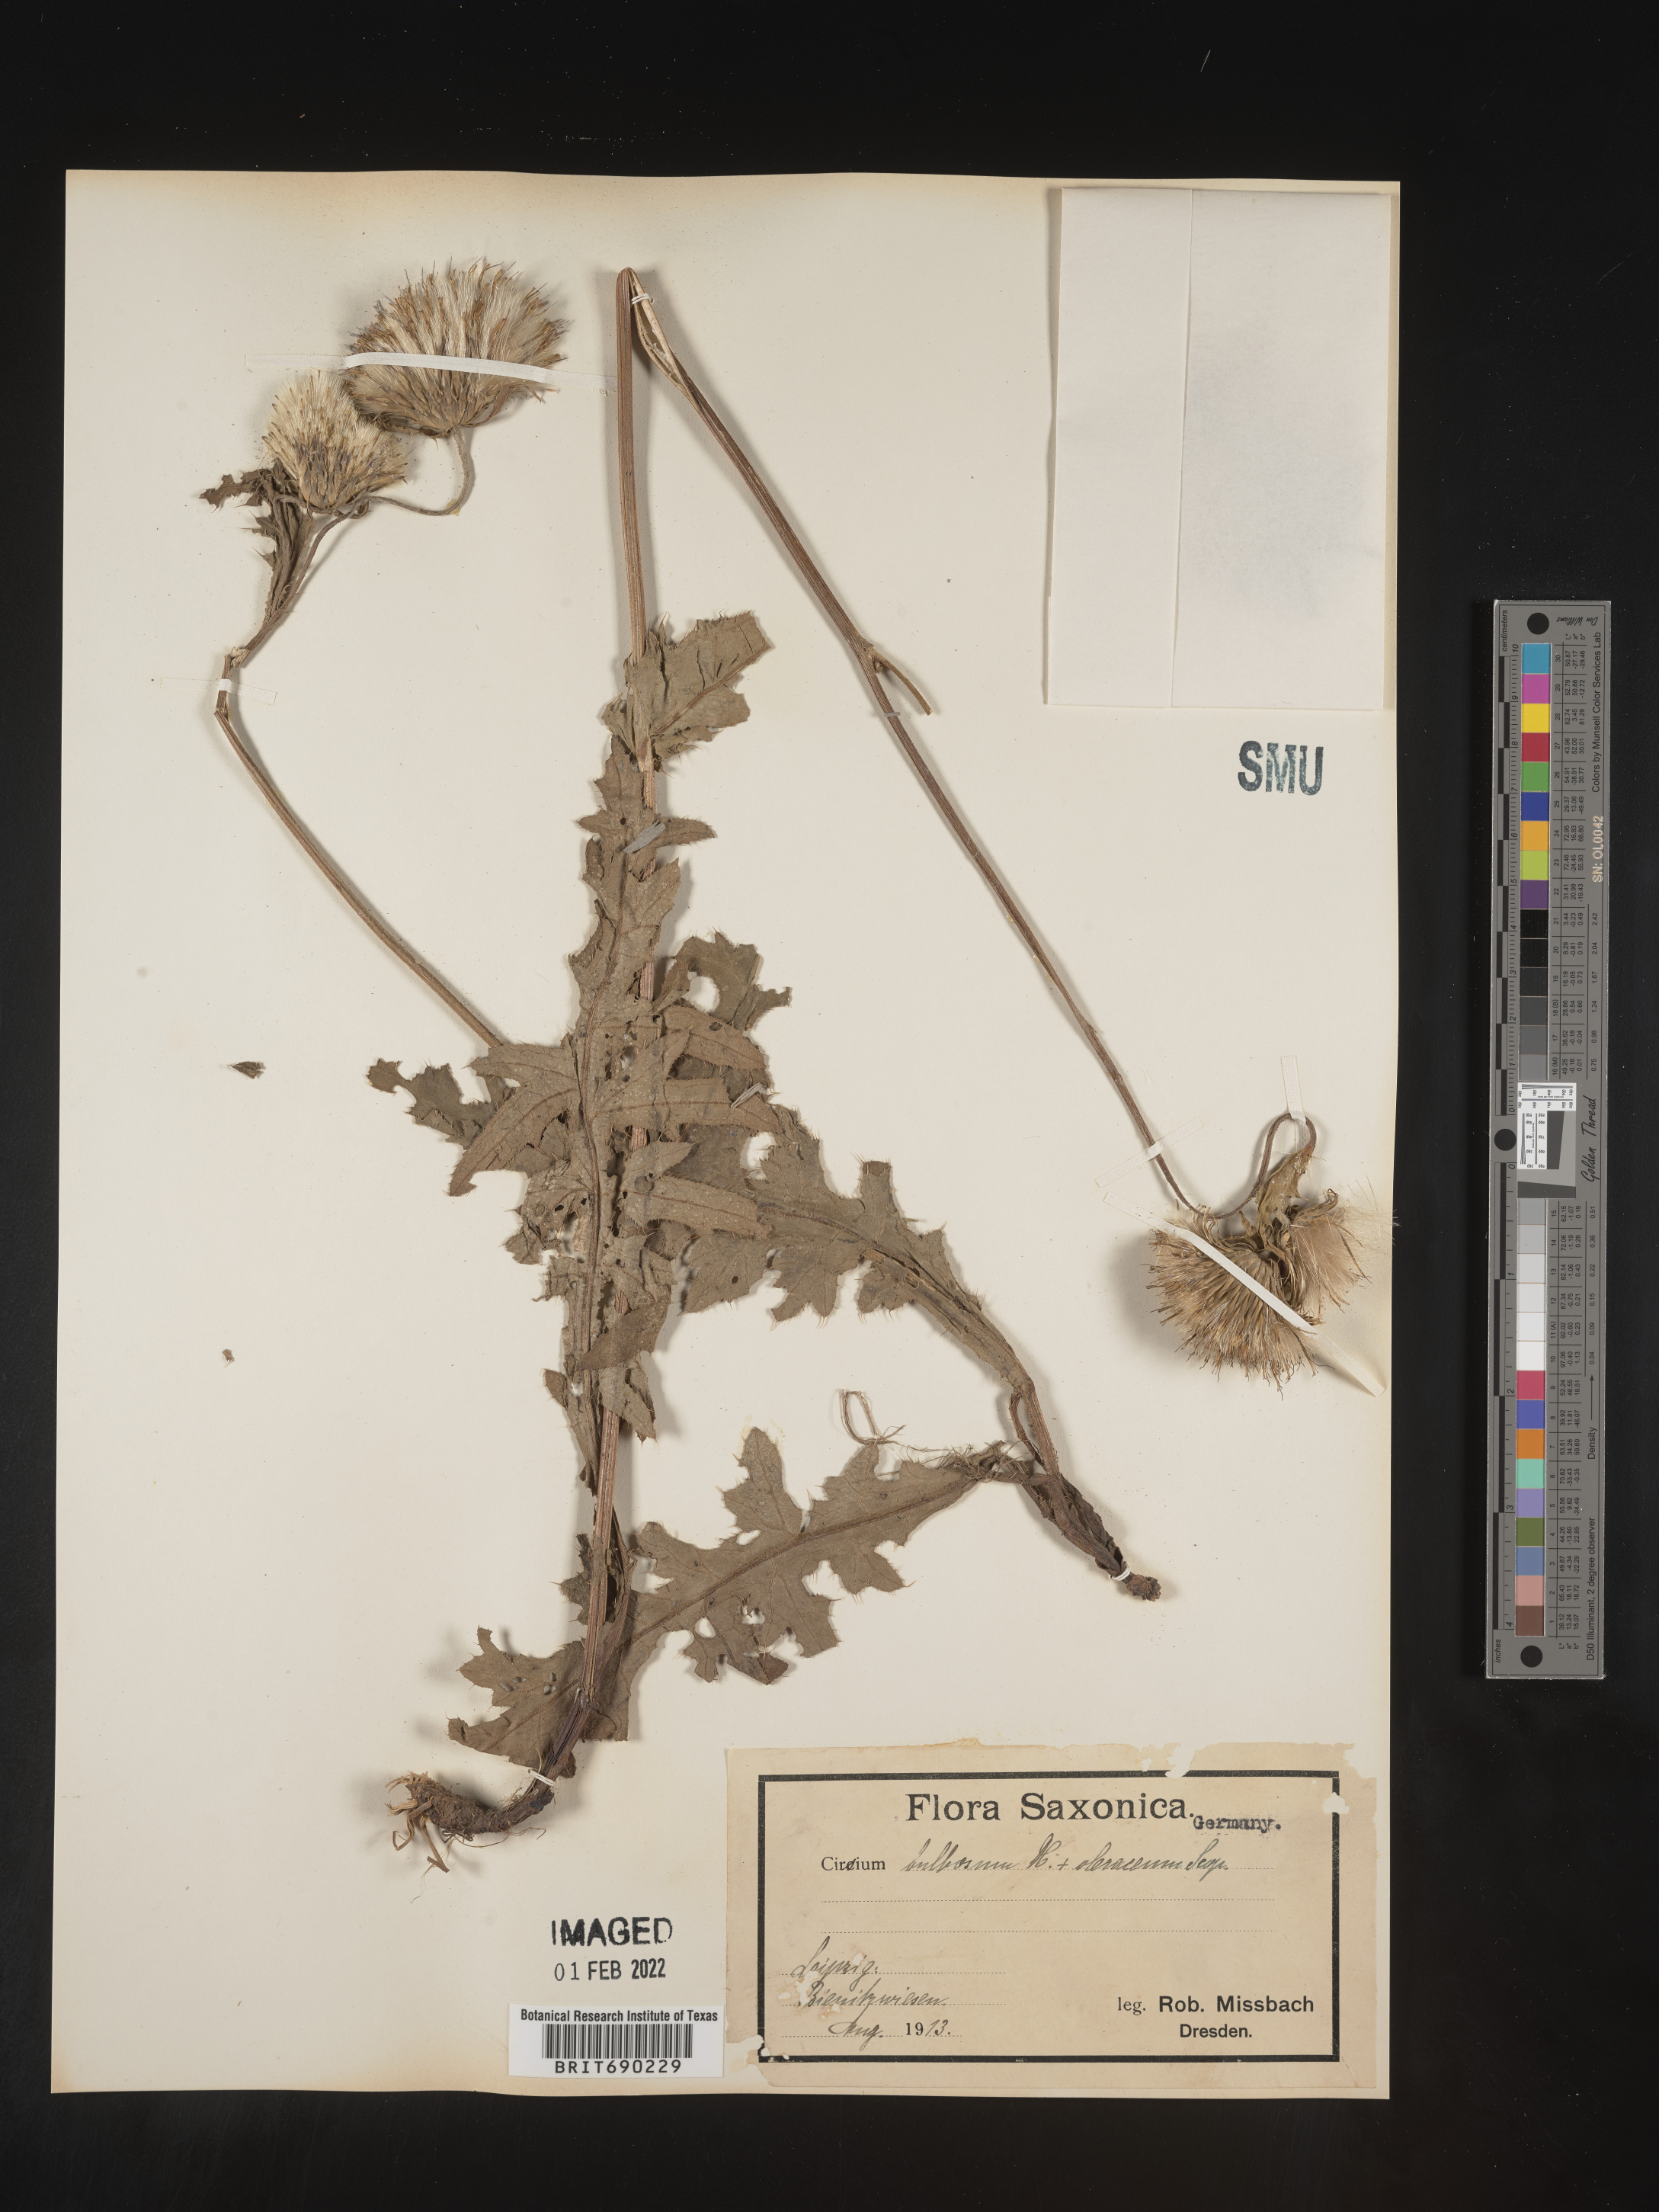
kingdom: Plantae
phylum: Tracheophyta
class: Magnoliopsida
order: Asterales
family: Asteraceae
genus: Cirsium
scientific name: Cirsium
